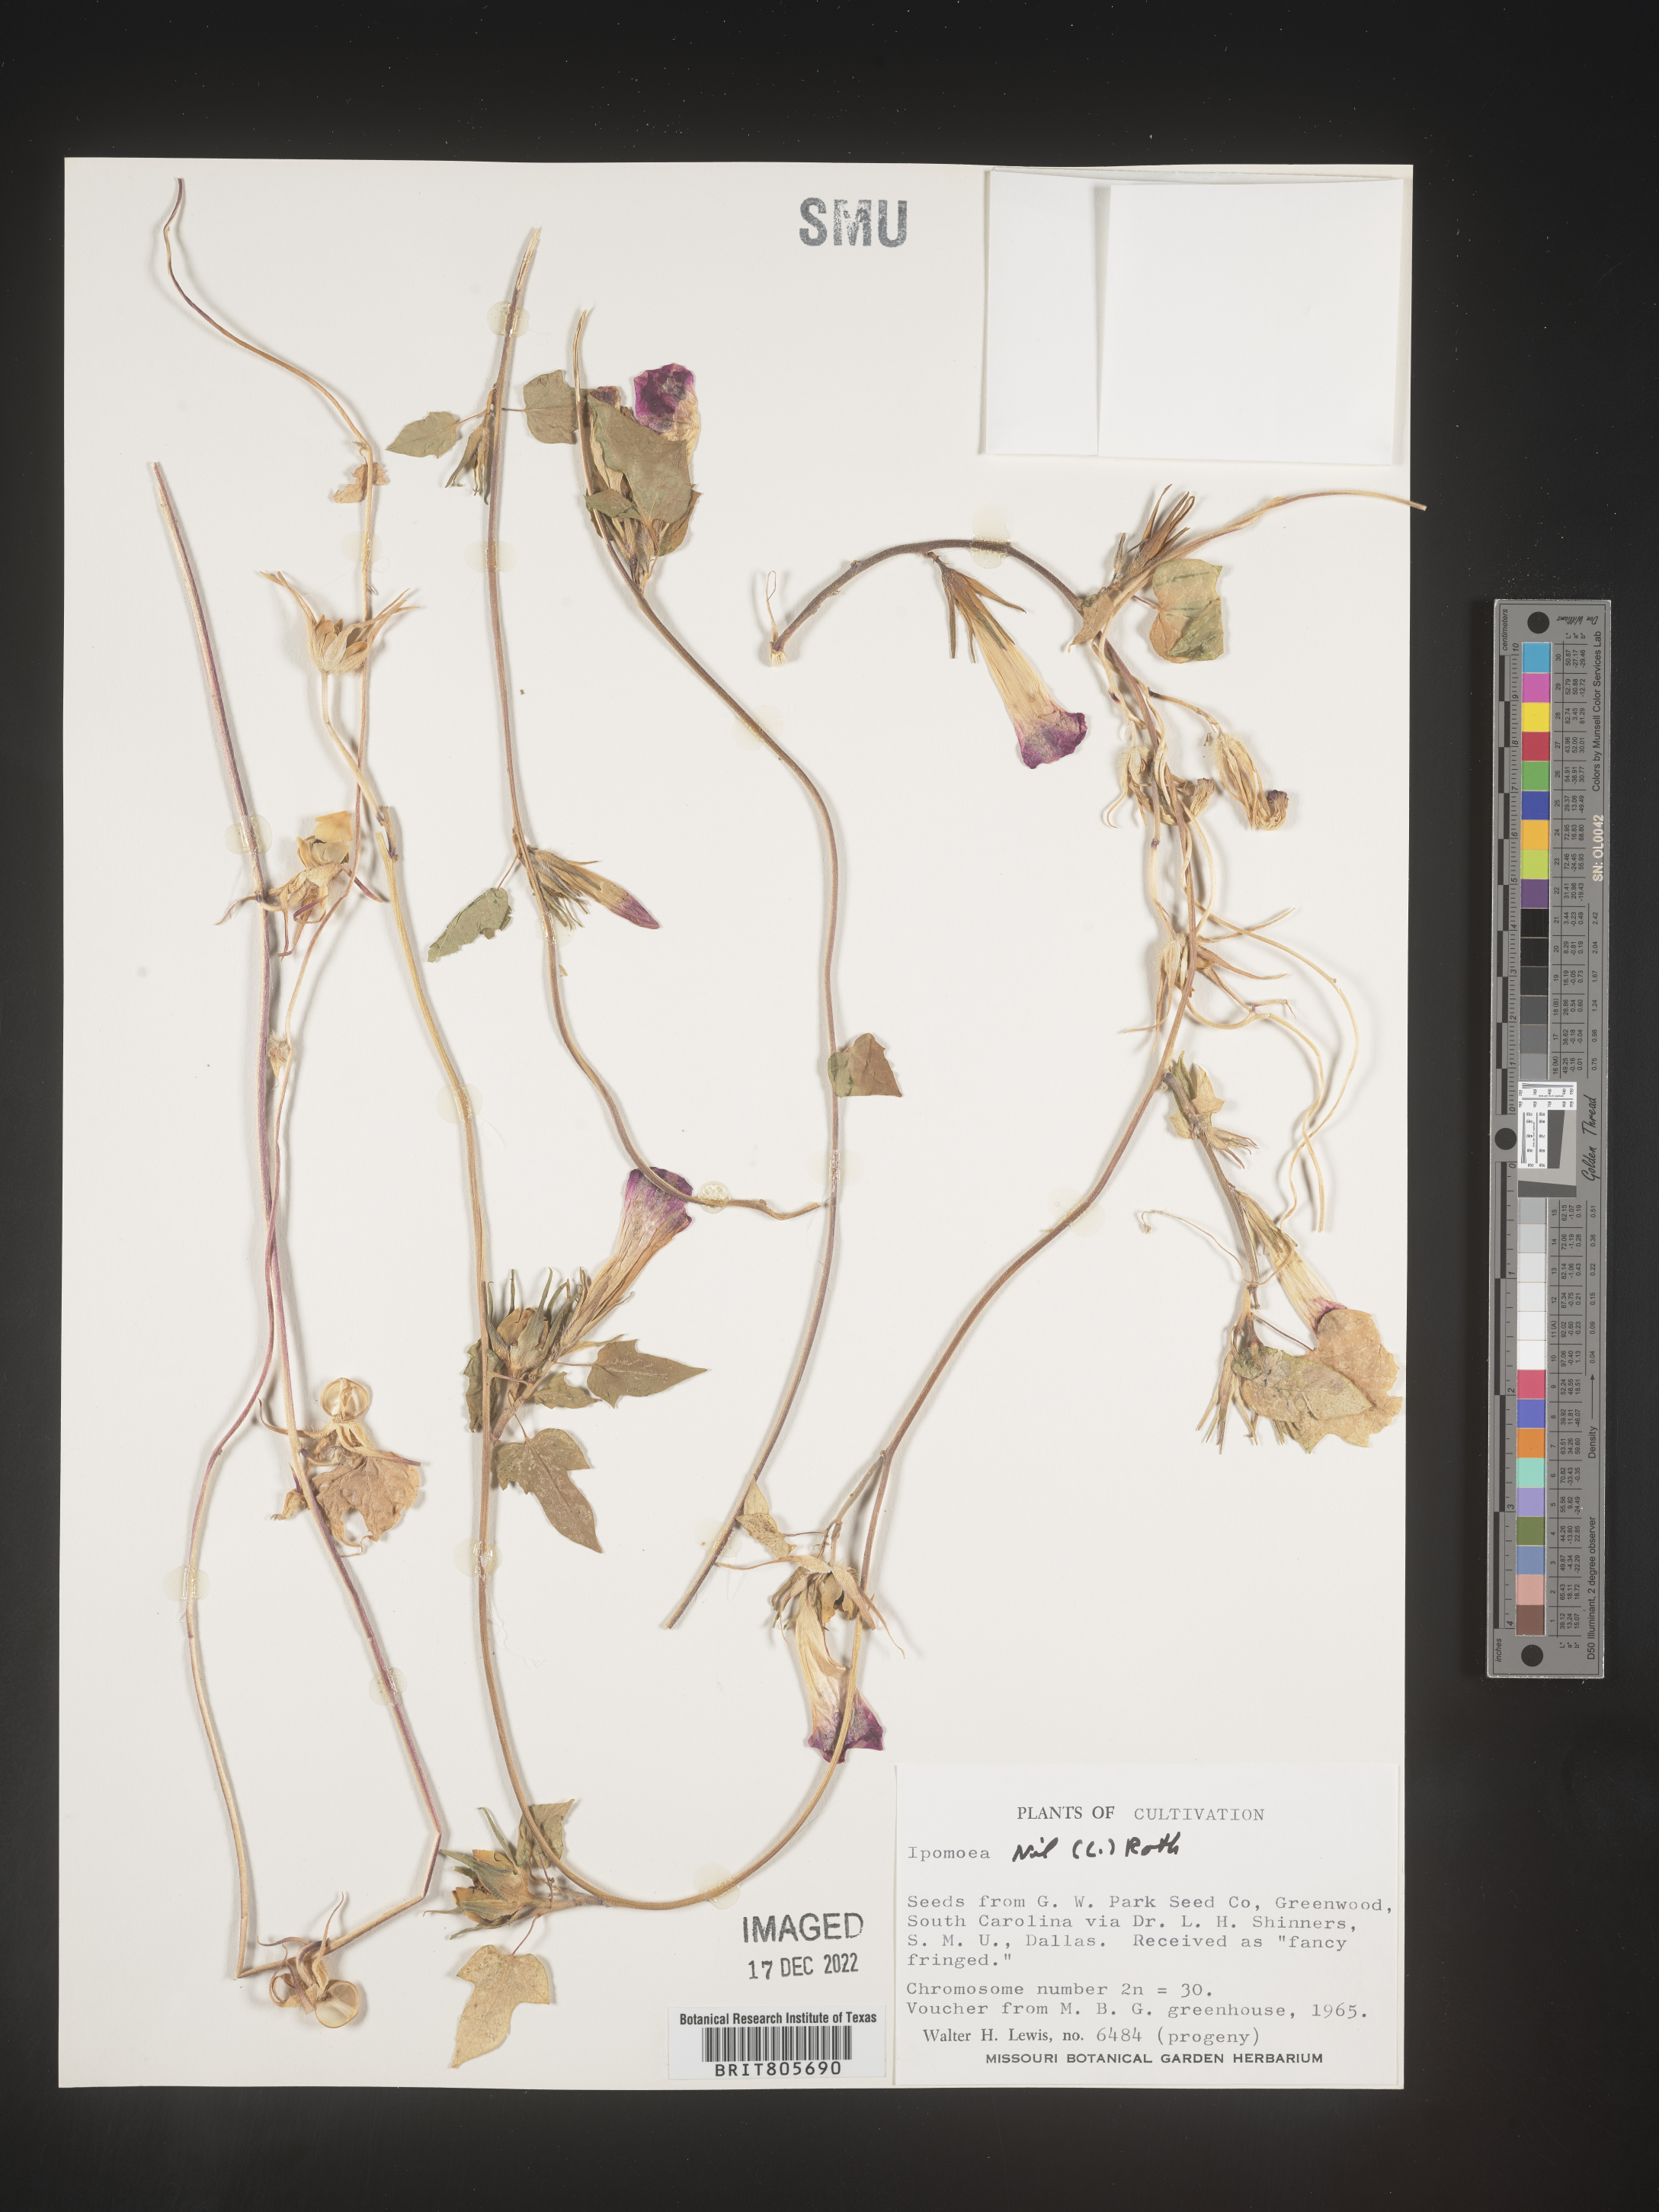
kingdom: Plantae
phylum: Tracheophyta
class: Magnoliopsida
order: Solanales
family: Convolvulaceae
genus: Ipomoea
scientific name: Ipomoea
